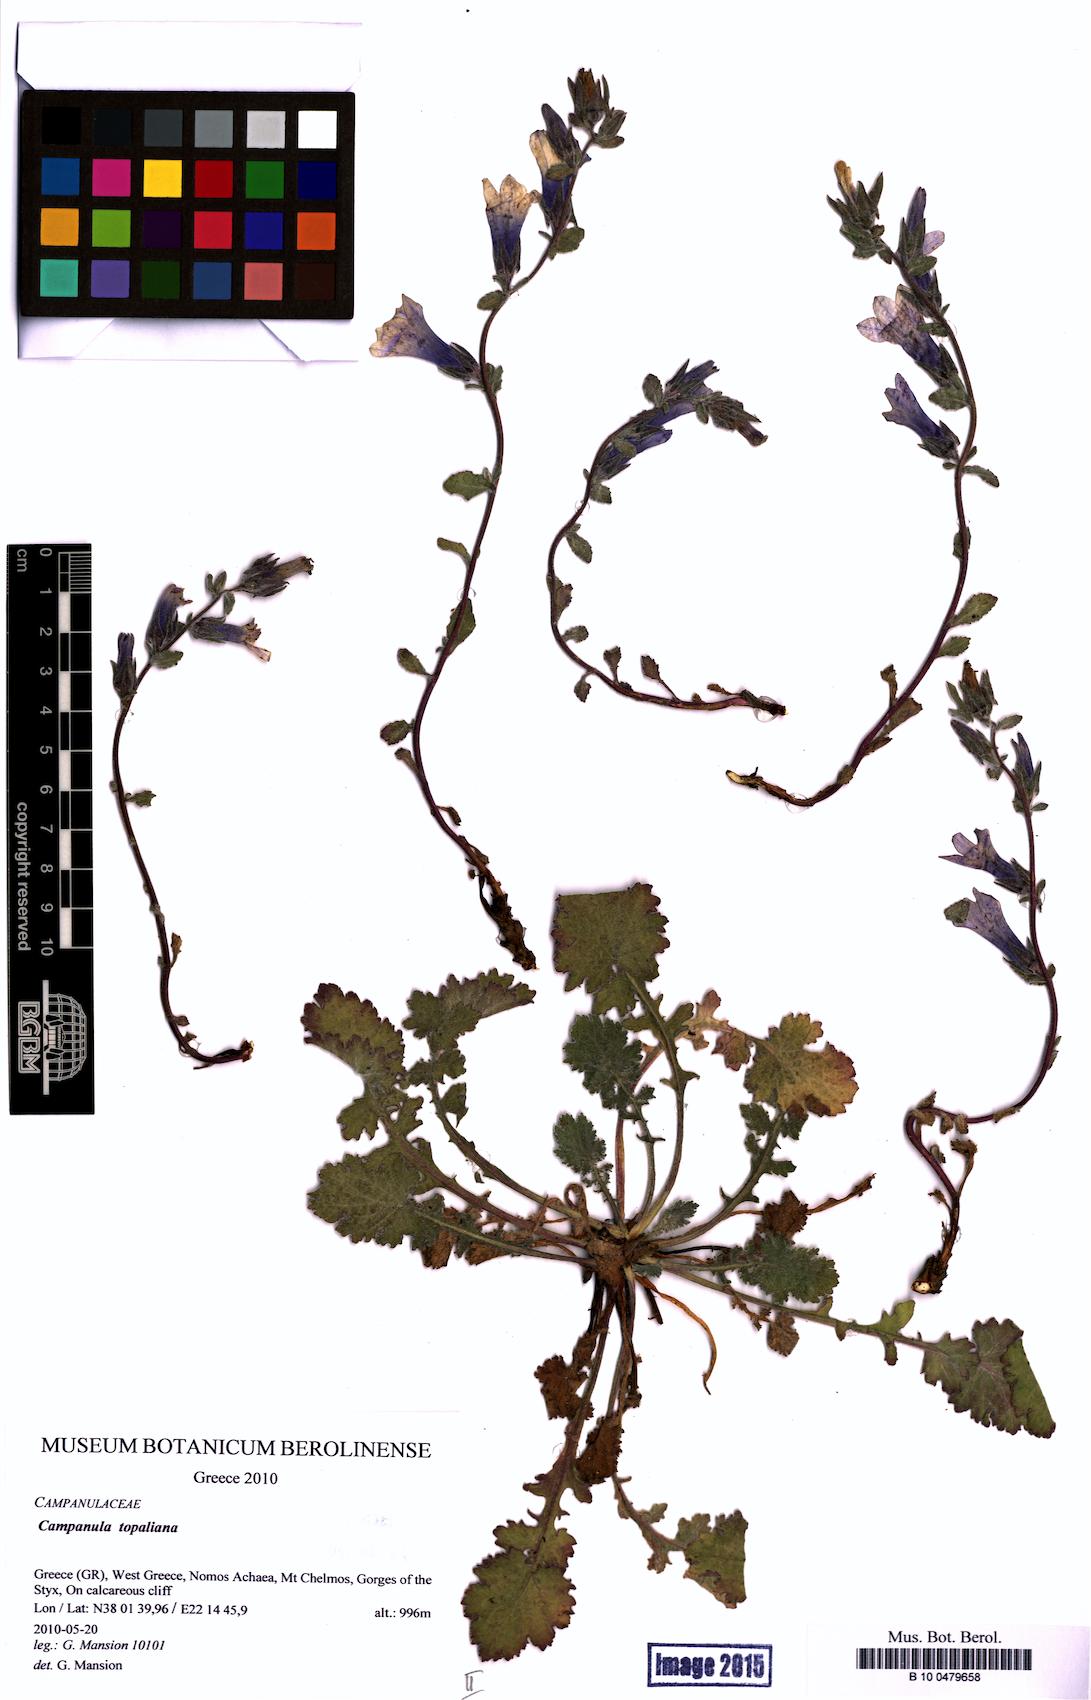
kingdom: Plantae
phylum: Tracheophyta
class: Magnoliopsida
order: Asterales
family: Campanulaceae
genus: Campanula
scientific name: Campanula topaliana
